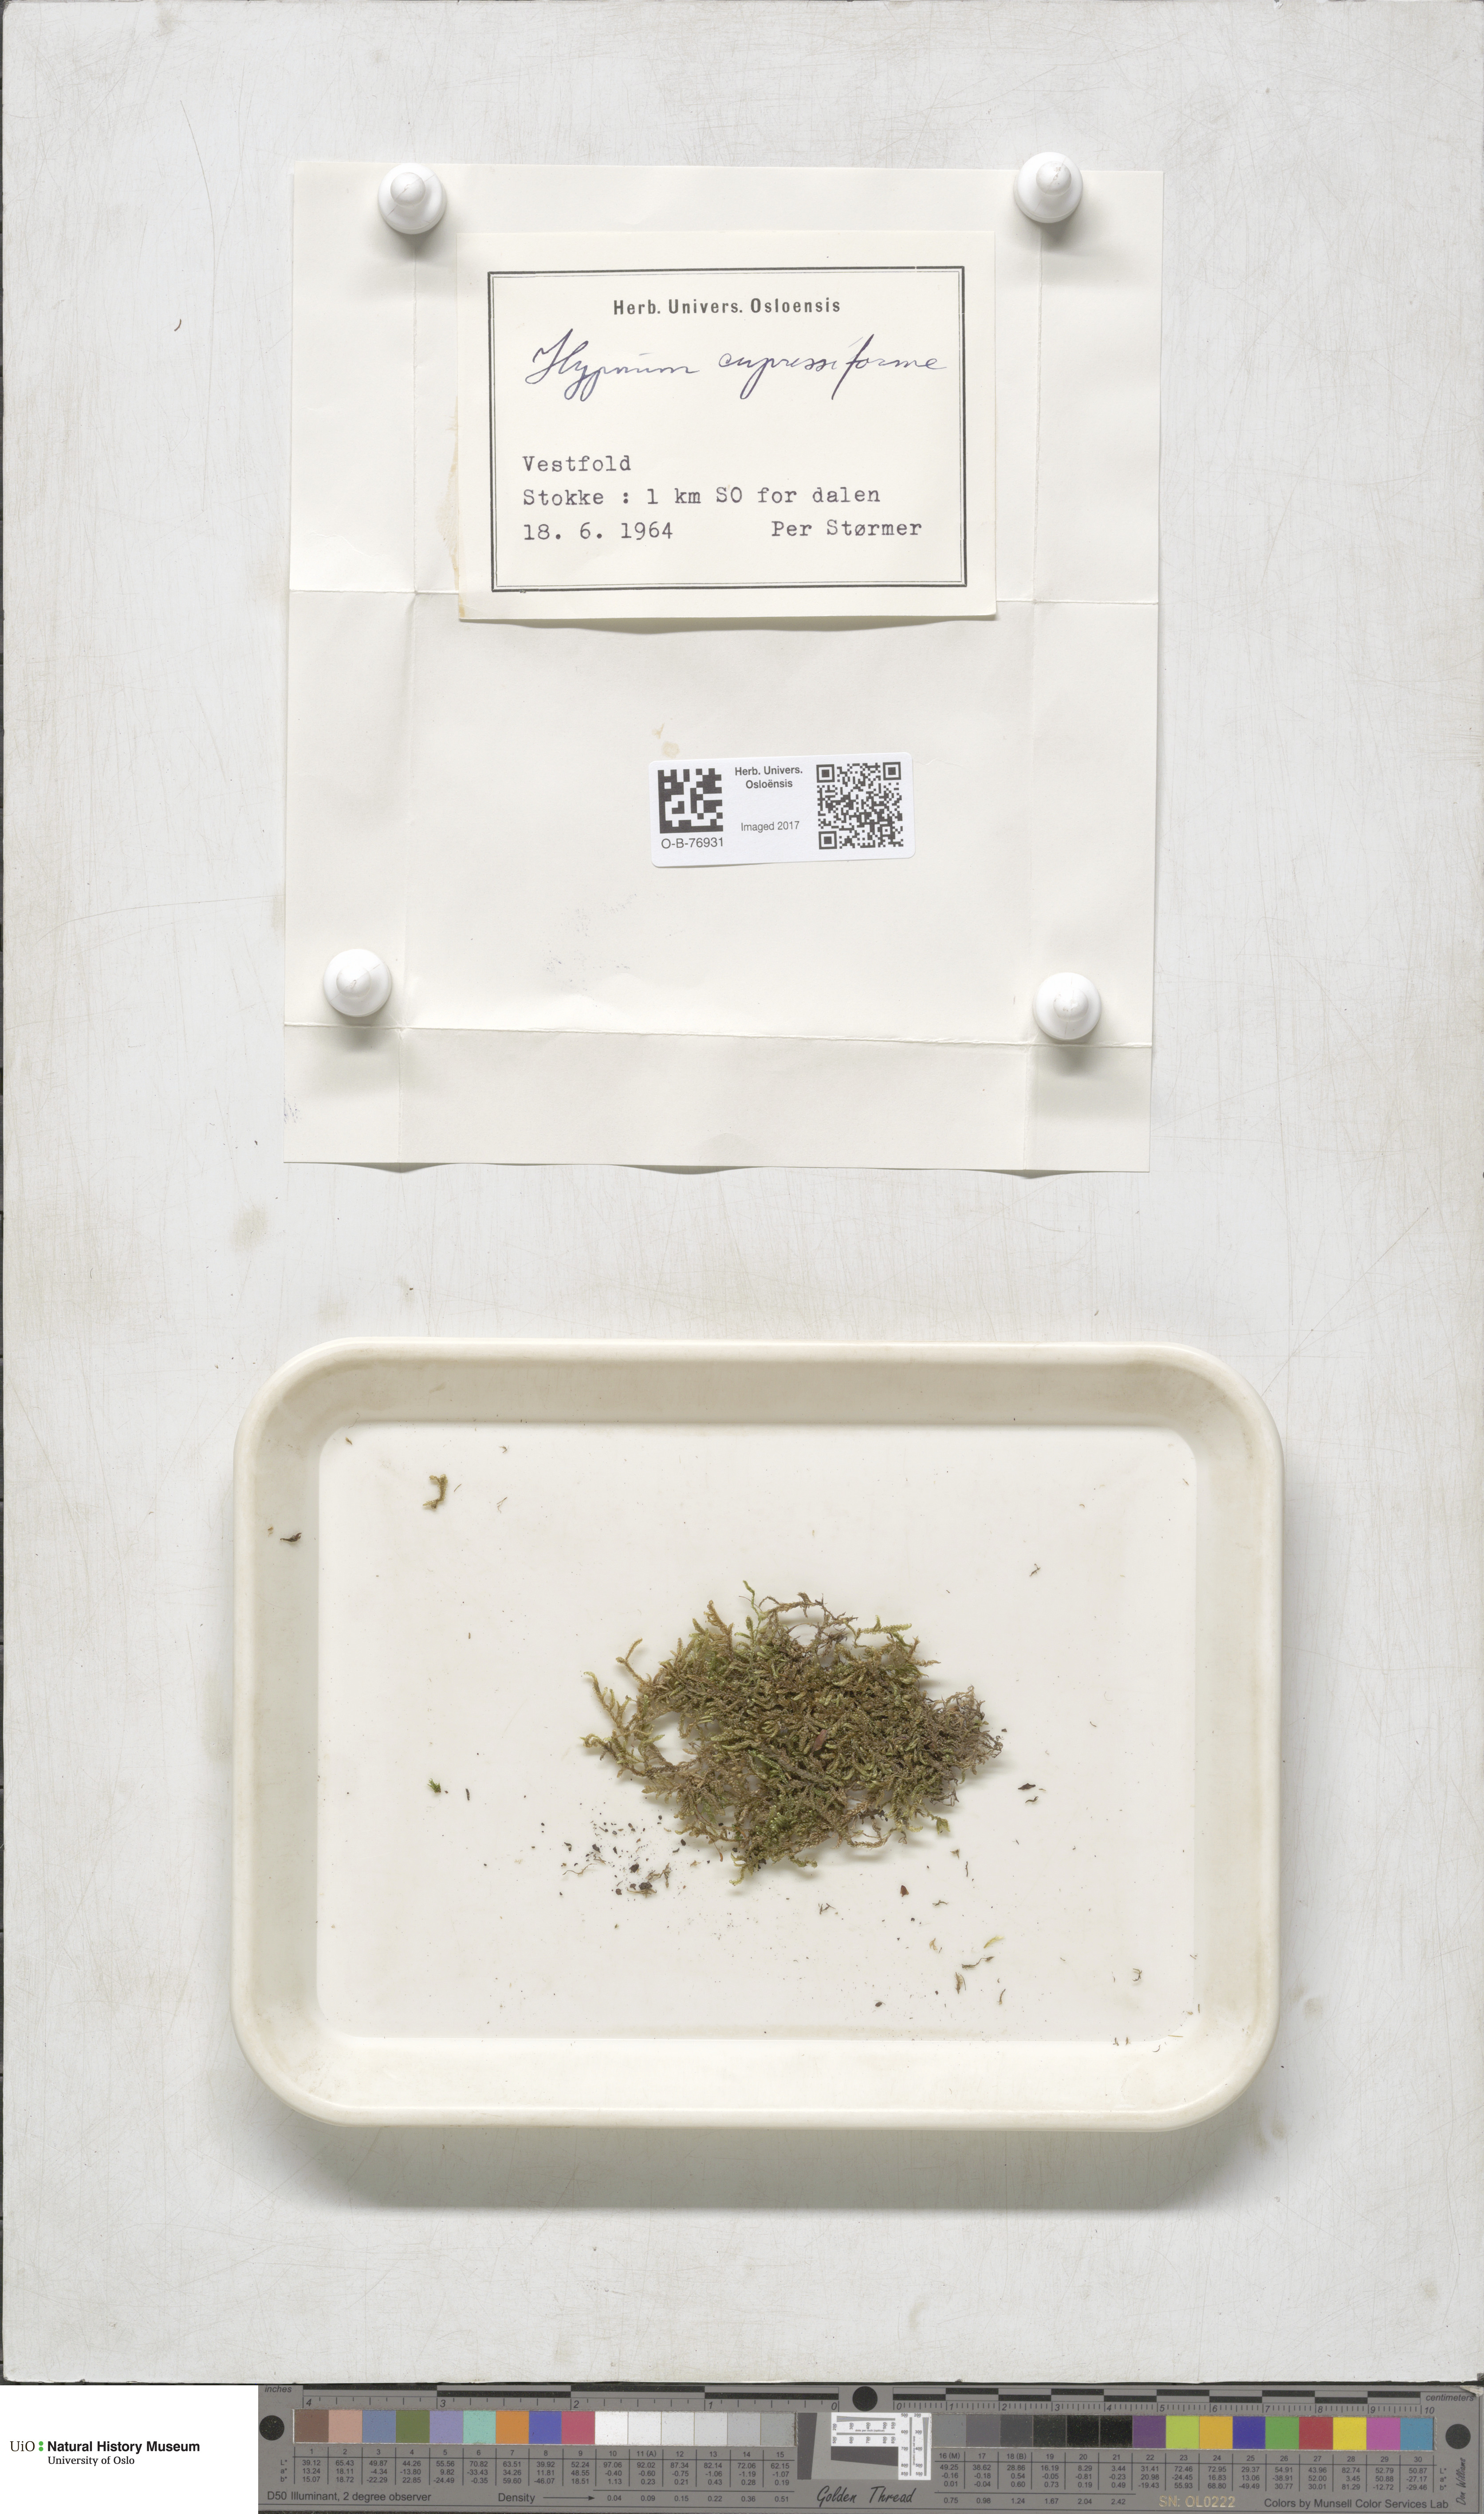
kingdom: Plantae
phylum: Bryophyta
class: Bryopsida
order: Hypnales
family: Hypnaceae
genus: Hypnum
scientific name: Hypnum cupressiforme
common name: Cypress-leaved plait-moss
